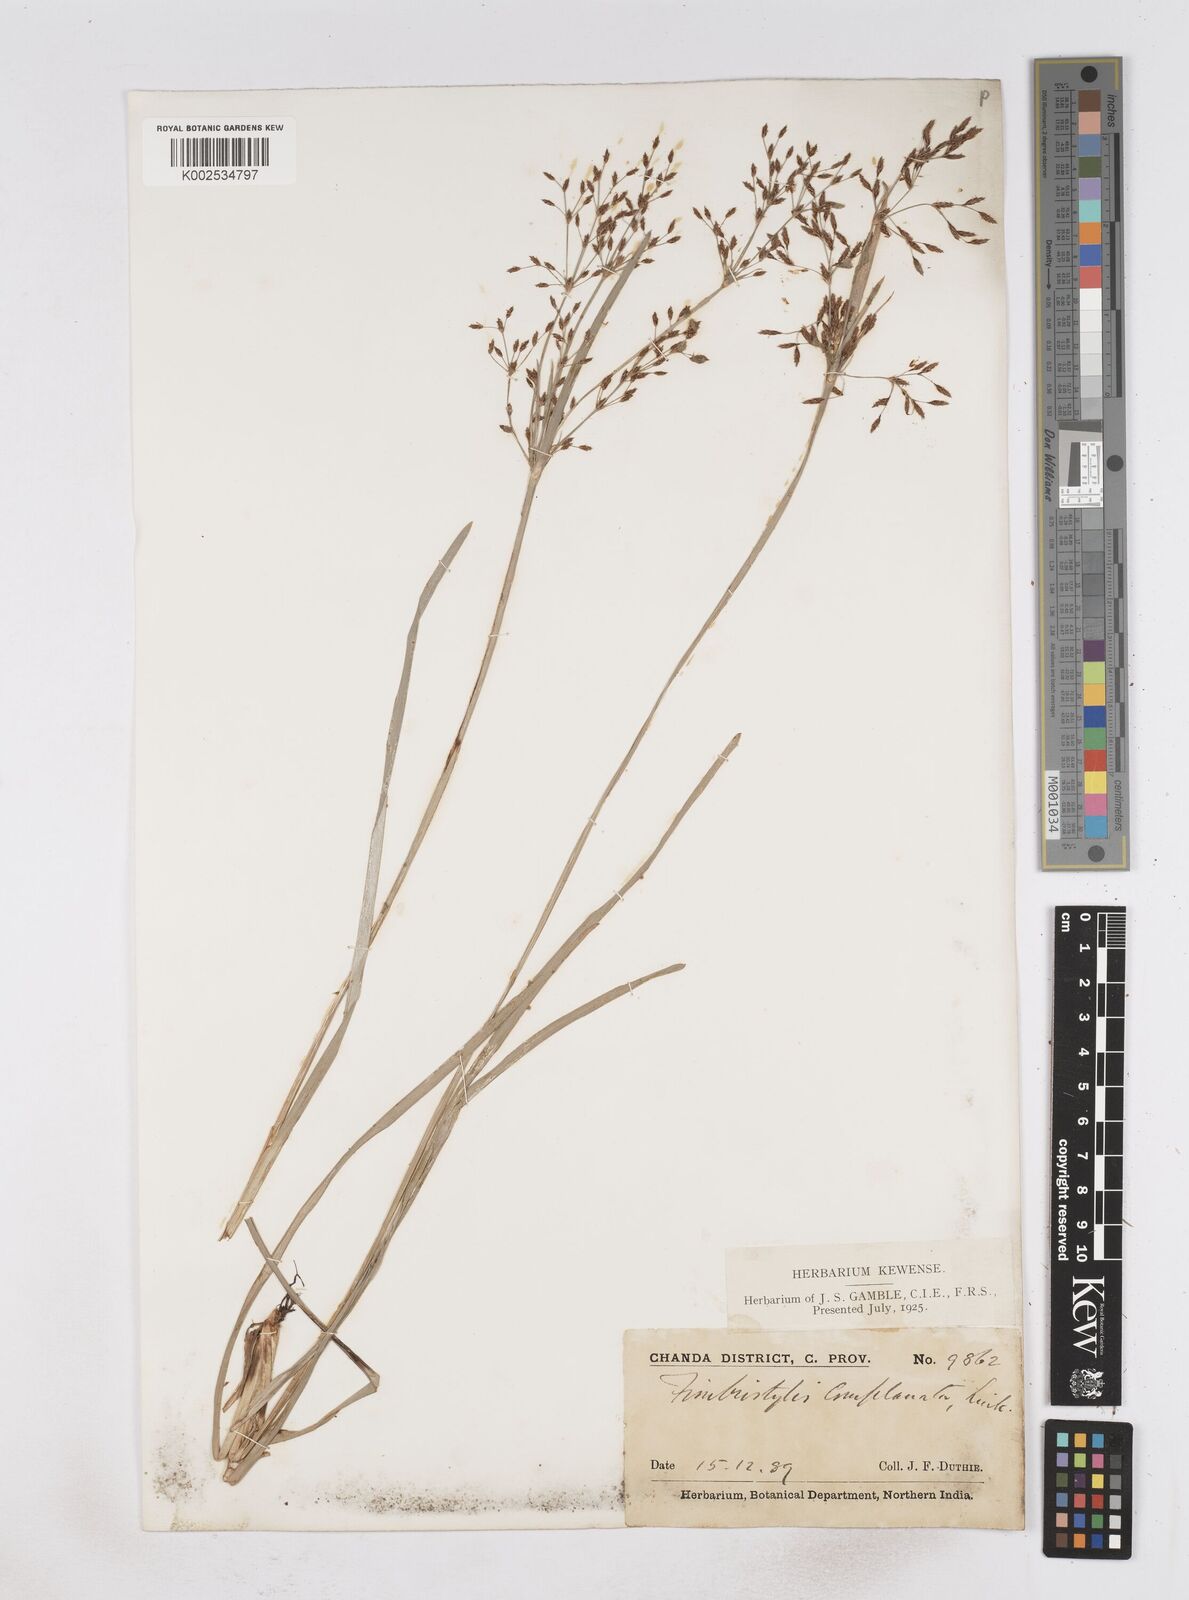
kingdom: Plantae
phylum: Tracheophyta
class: Liliopsida
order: Poales
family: Cyperaceae
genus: Fimbristylis
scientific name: Fimbristylis complanata
